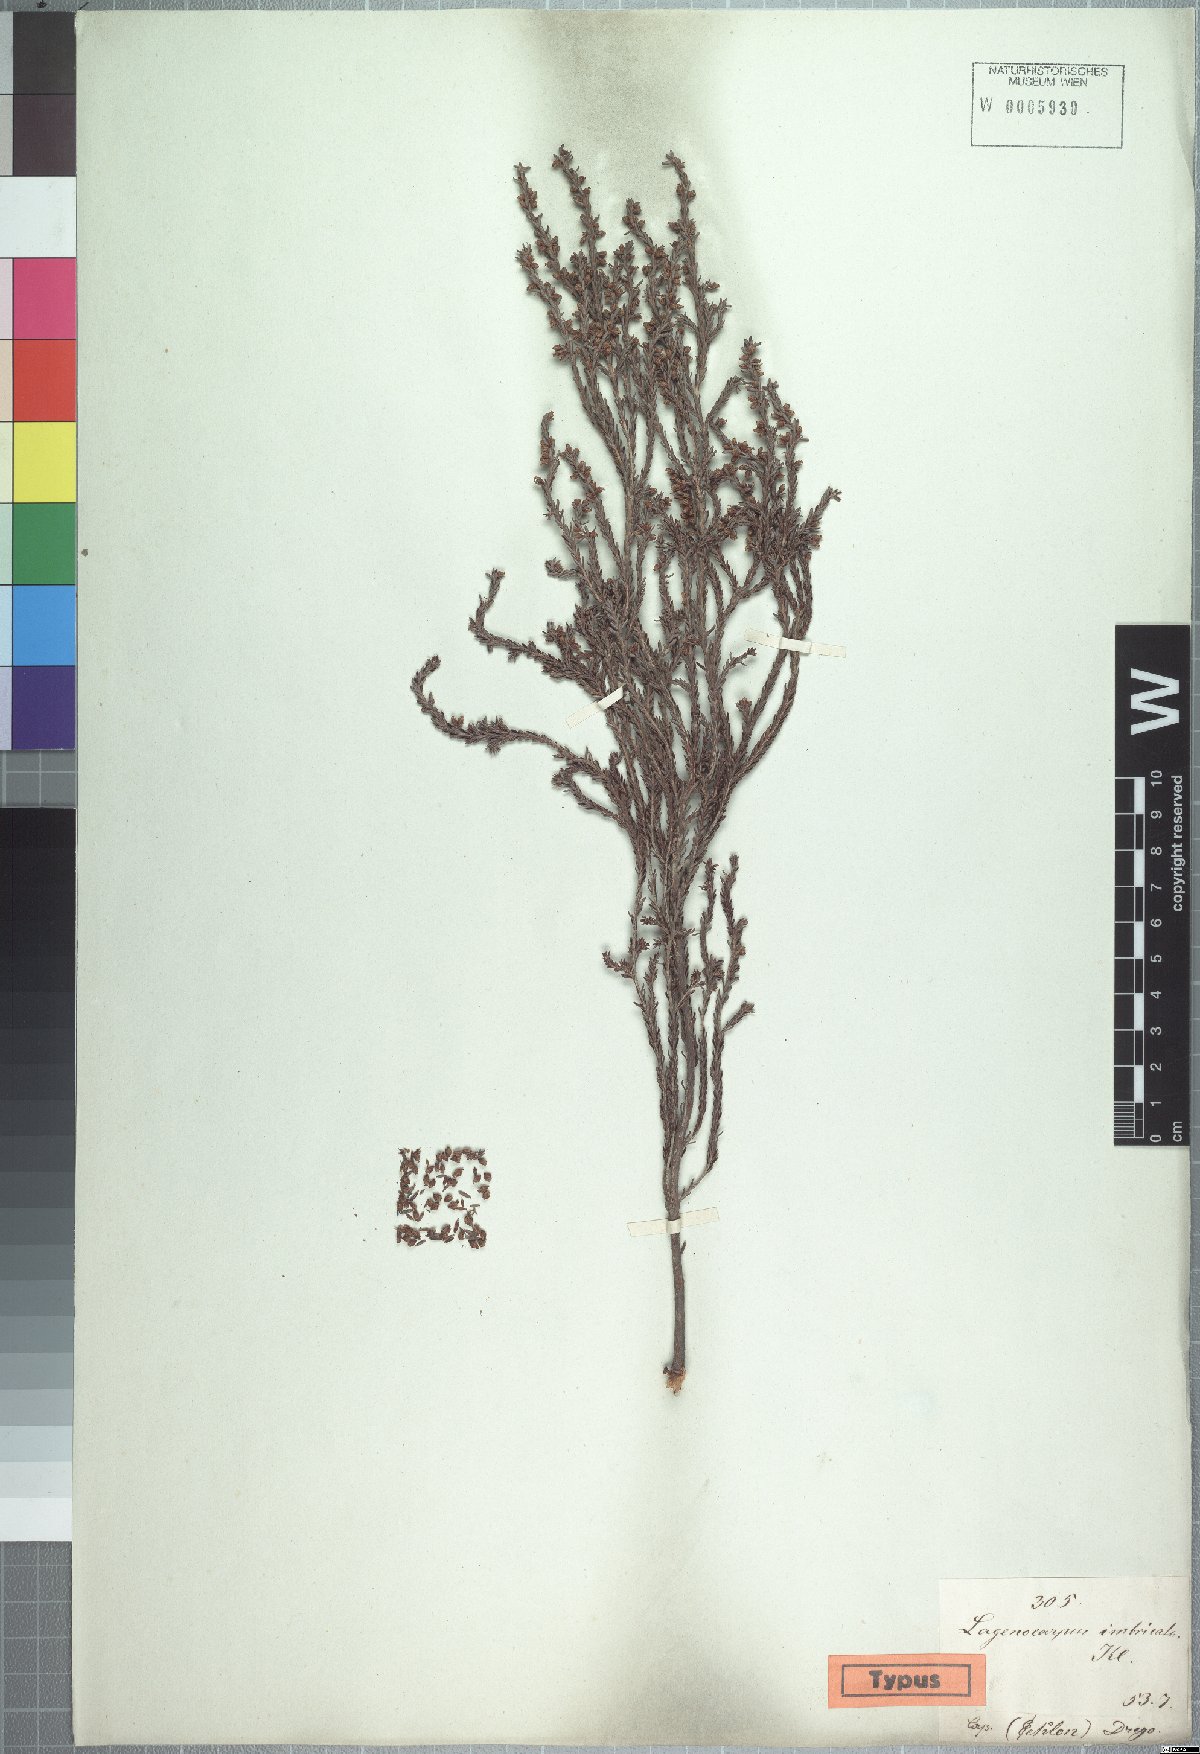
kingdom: Plantae
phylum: Tracheophyta
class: Magnoliopsida
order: Ericales
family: Ericaceae
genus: Erica
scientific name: Erica serrata
